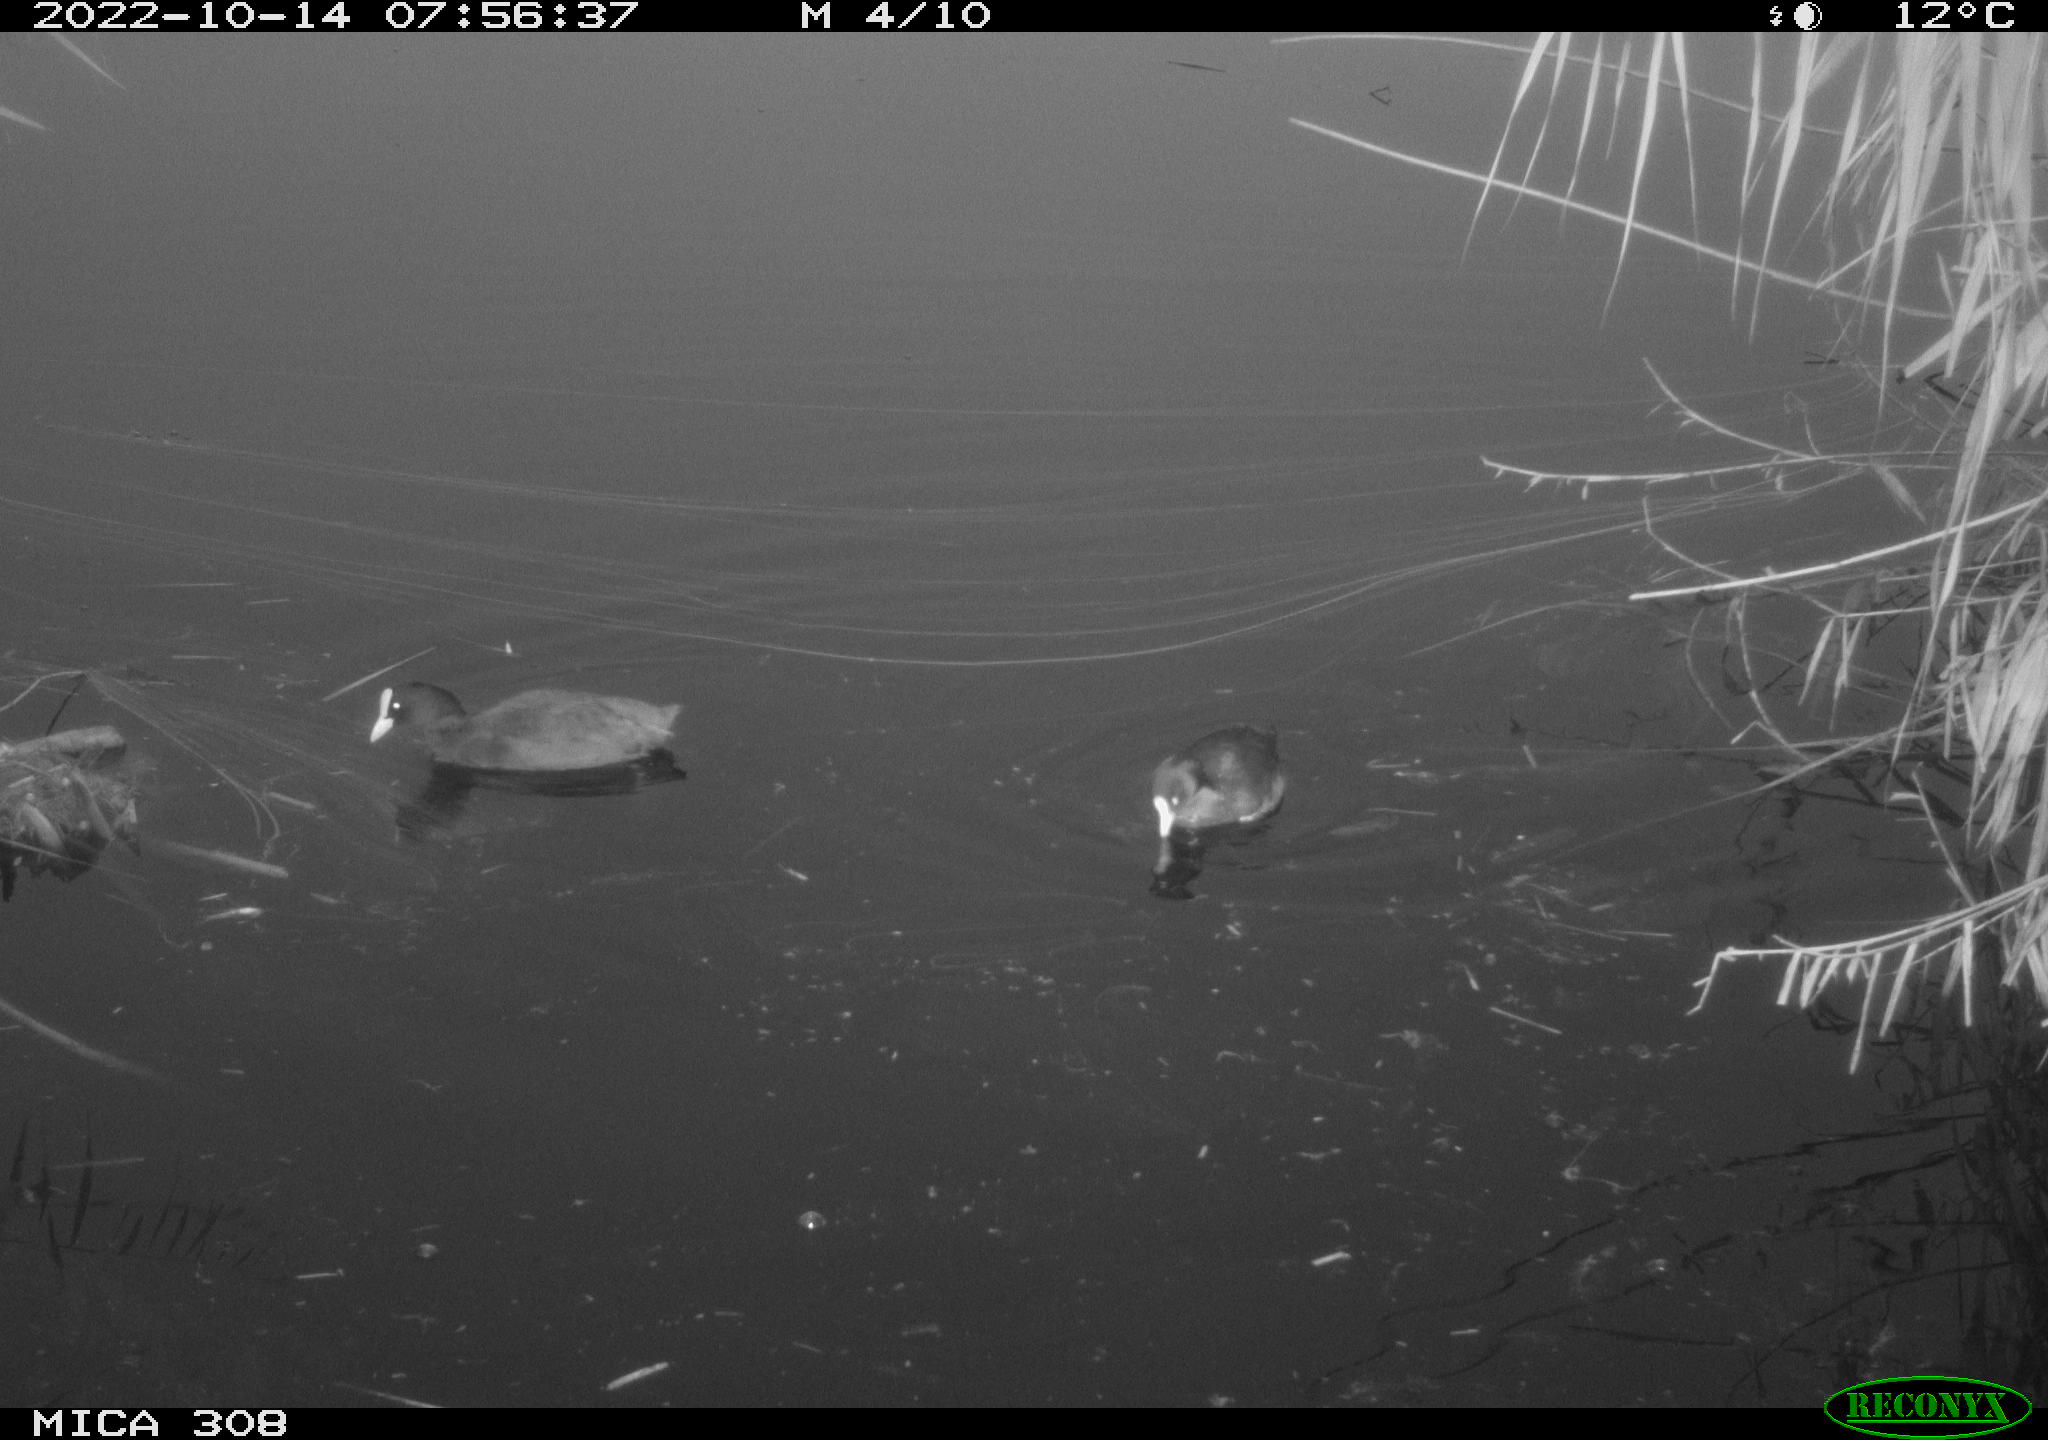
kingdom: Animalia
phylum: Chordata
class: Aves
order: Anseriformes
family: Anatidae
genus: Anas
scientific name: Anas
